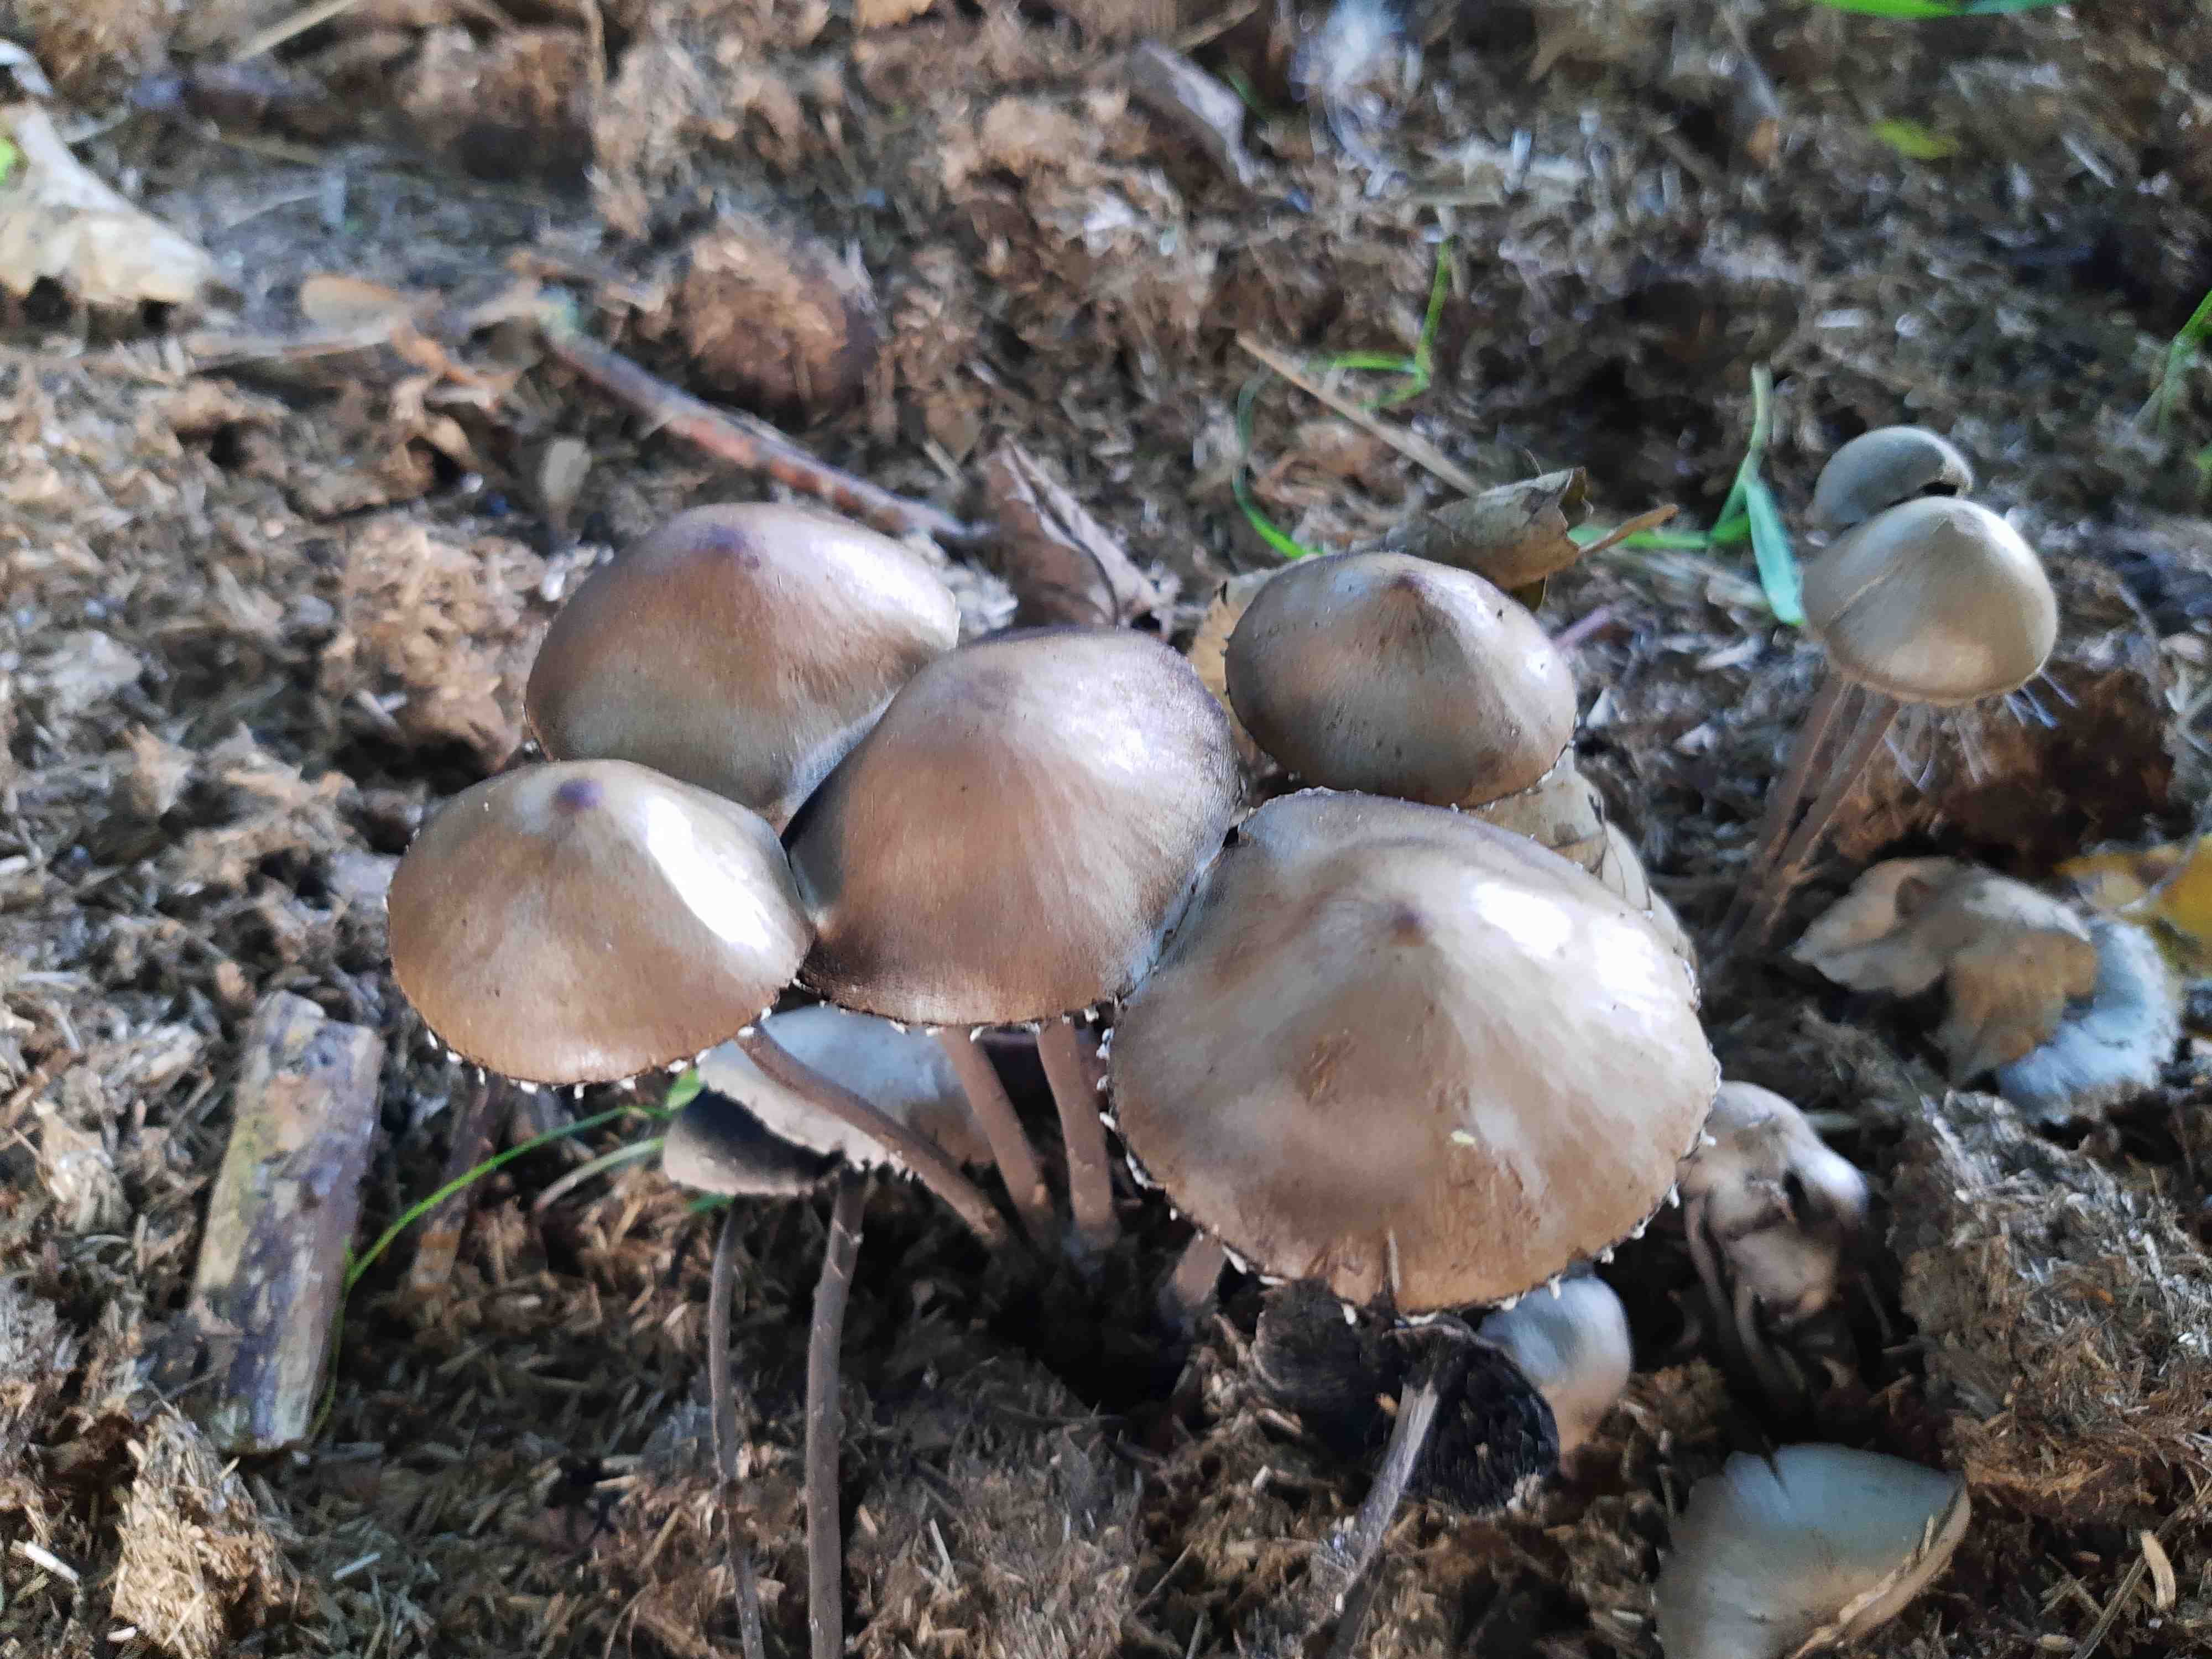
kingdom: Fungi
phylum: Basidiomycota
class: Agaricomycetes
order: Agaricales
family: Bolbitiaceae
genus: Panaeolus
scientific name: Panaeolus papilionaceus
